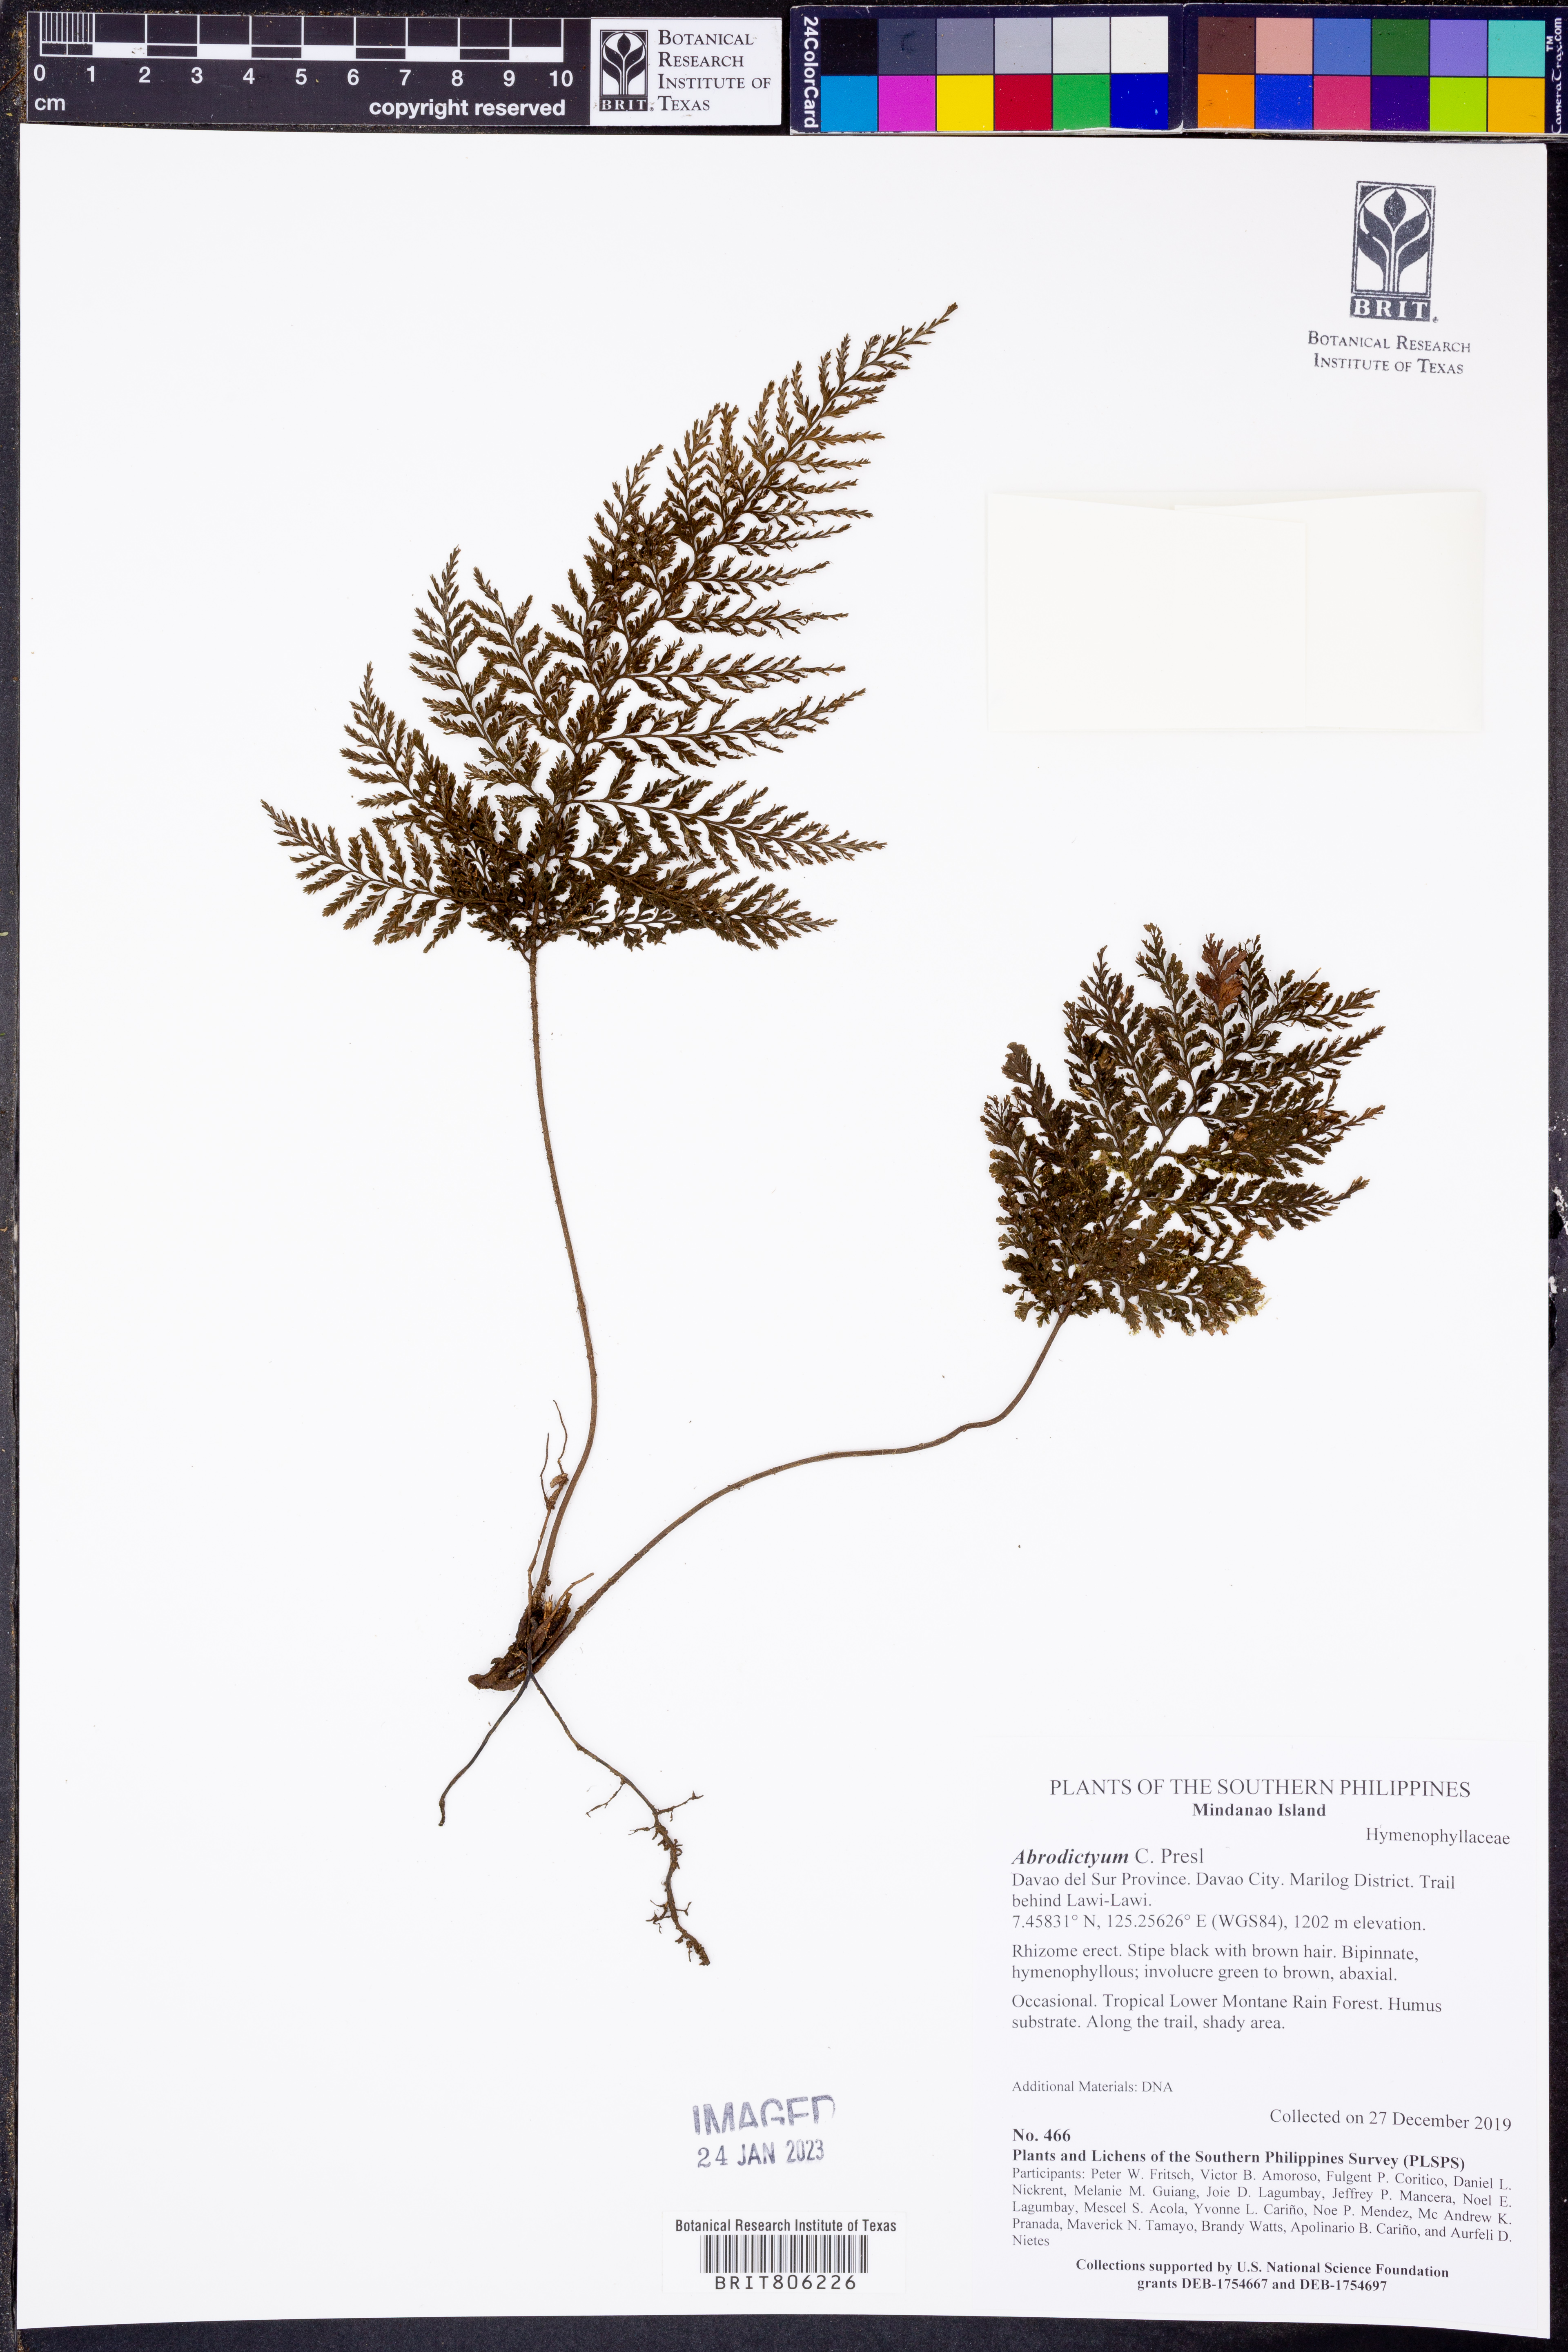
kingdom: Plantae
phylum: Tracheophyta
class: Polypodiopsida
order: Hymenophyllales
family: Hymenophyllaceae
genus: Abrodictyum
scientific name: Abrodictyum
